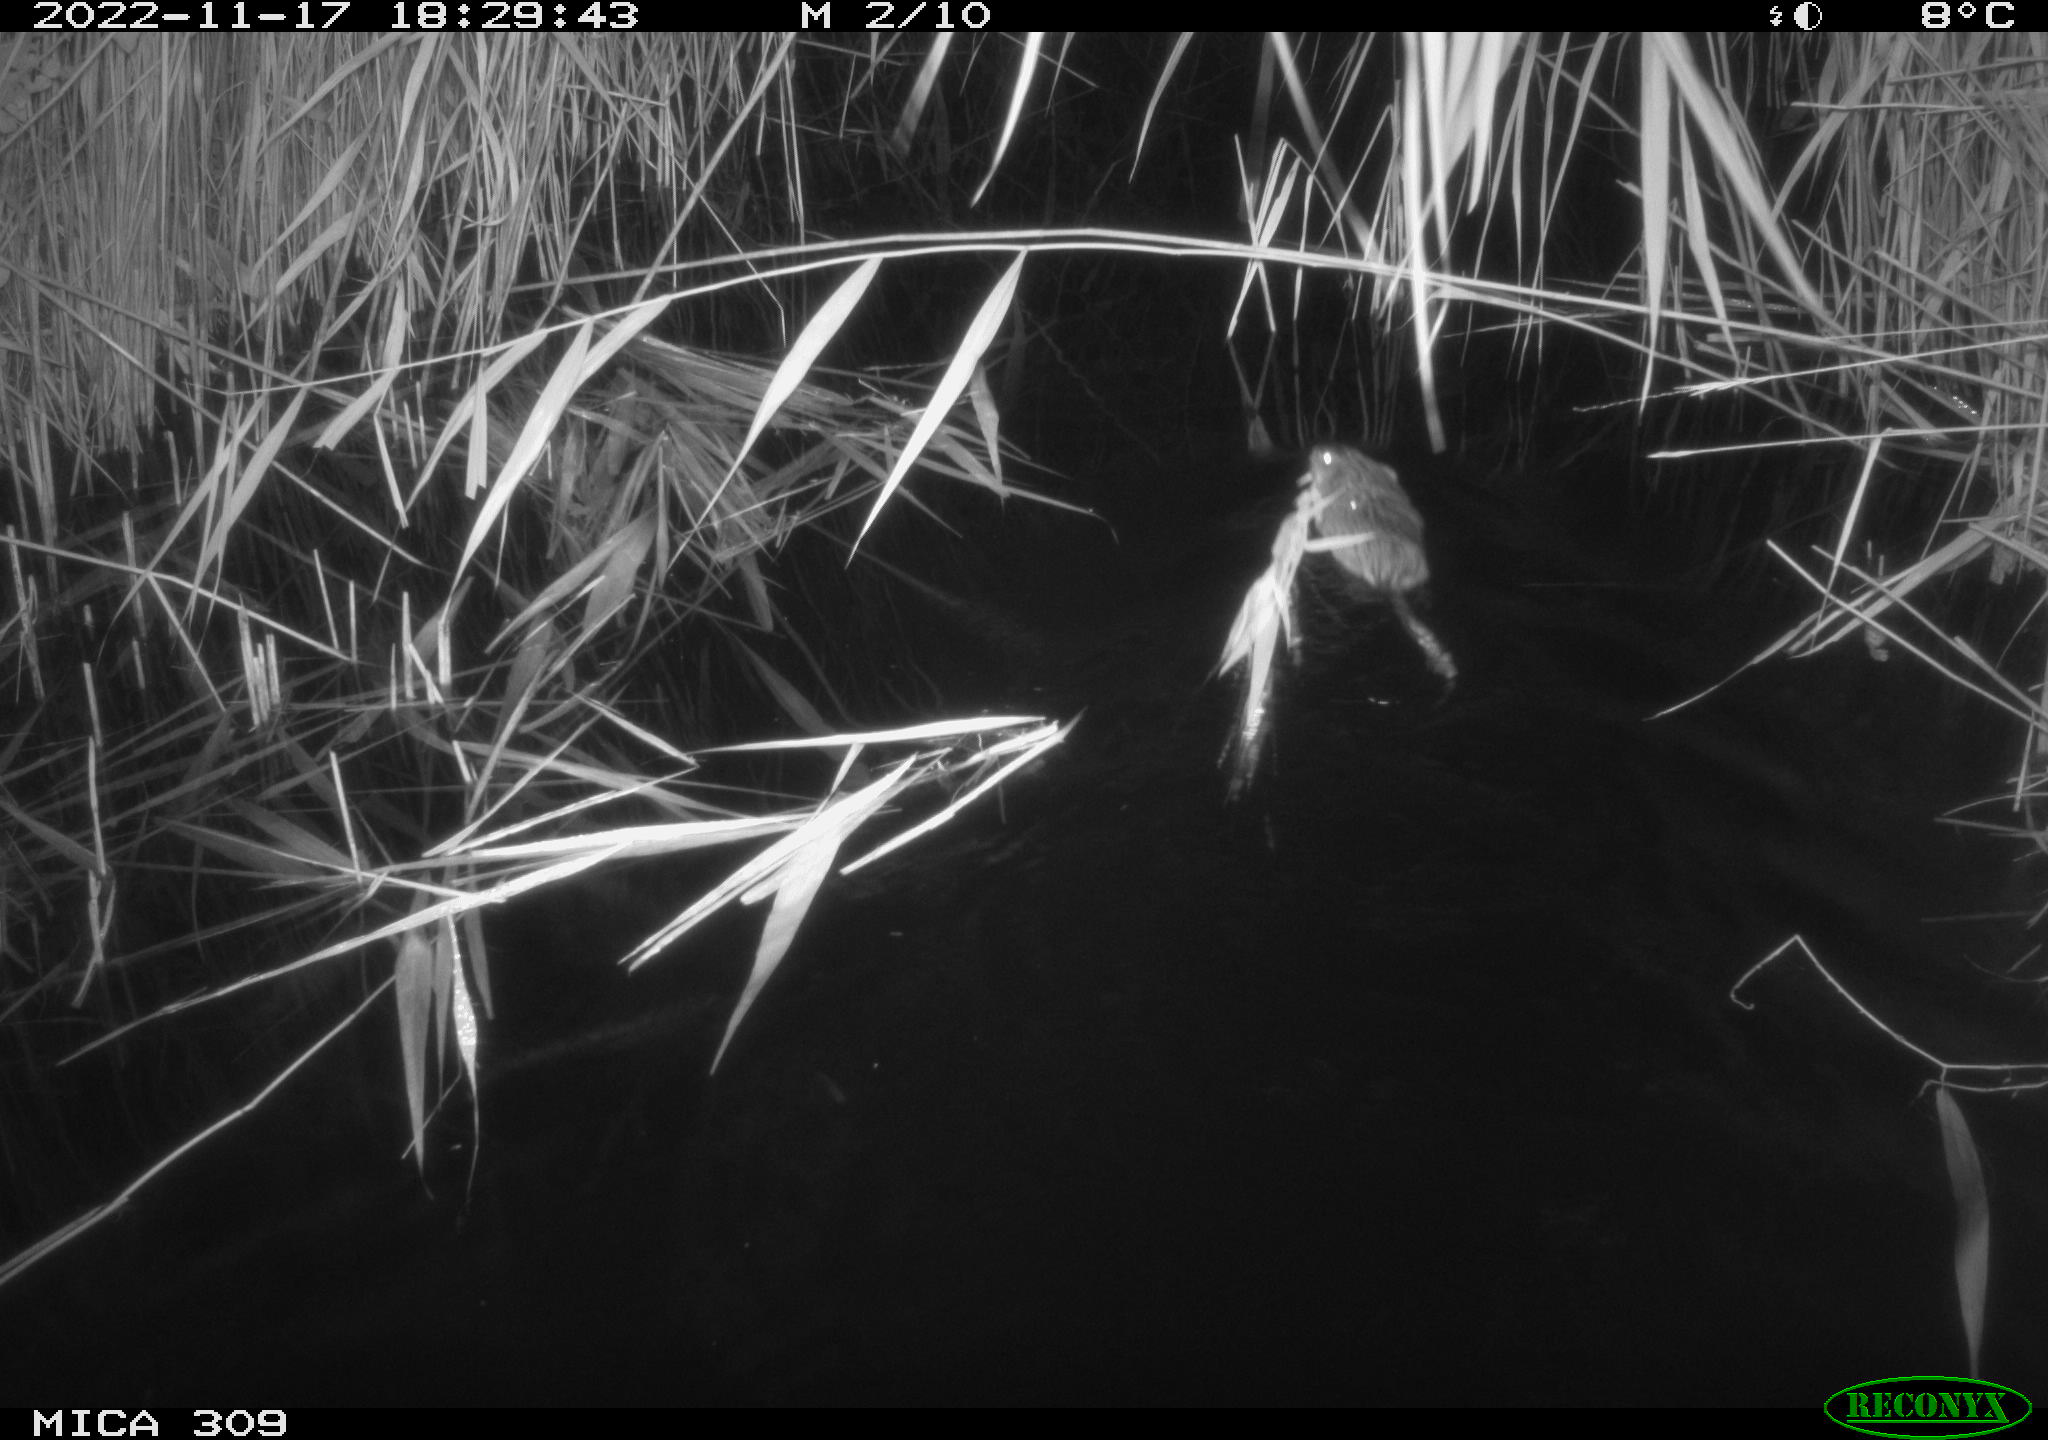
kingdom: Animalia
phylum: Chordata
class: Mammalia
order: Rodentia
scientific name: Rodentia
